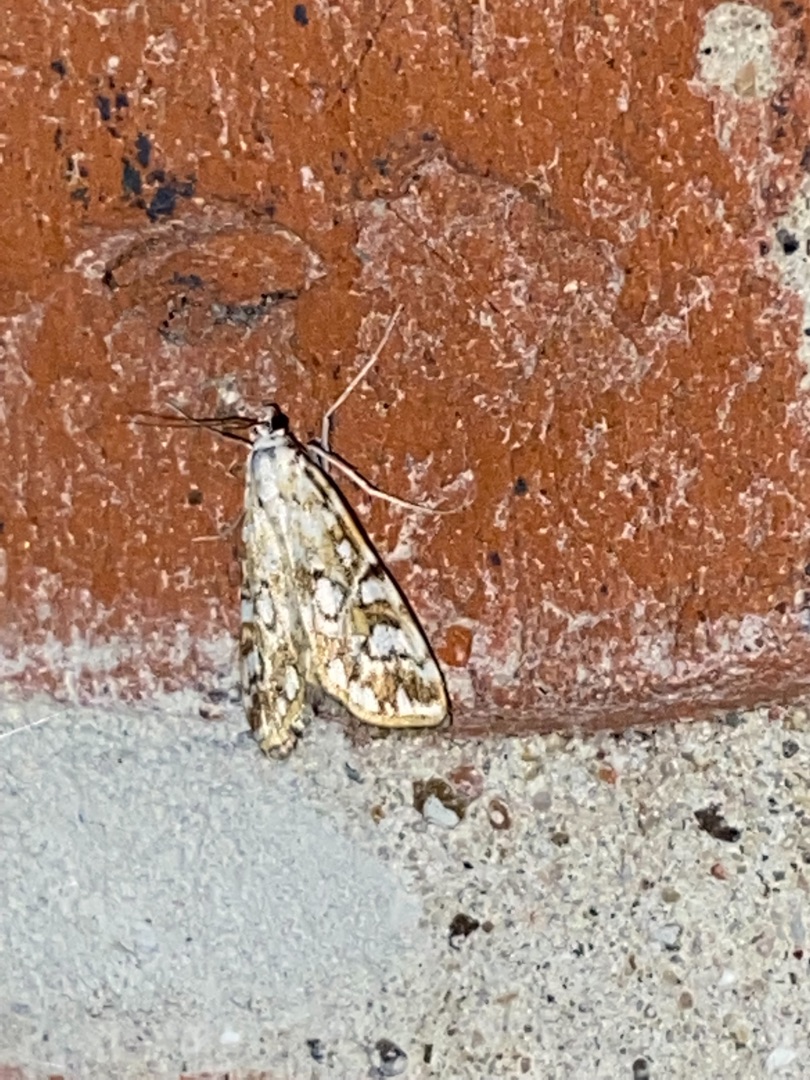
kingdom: Animalia
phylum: Arthropoda
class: Insecta
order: Lepidoptera
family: Crambidae
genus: Elophila
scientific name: Elophila nymphaeata
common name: Åkandehalvmøl
